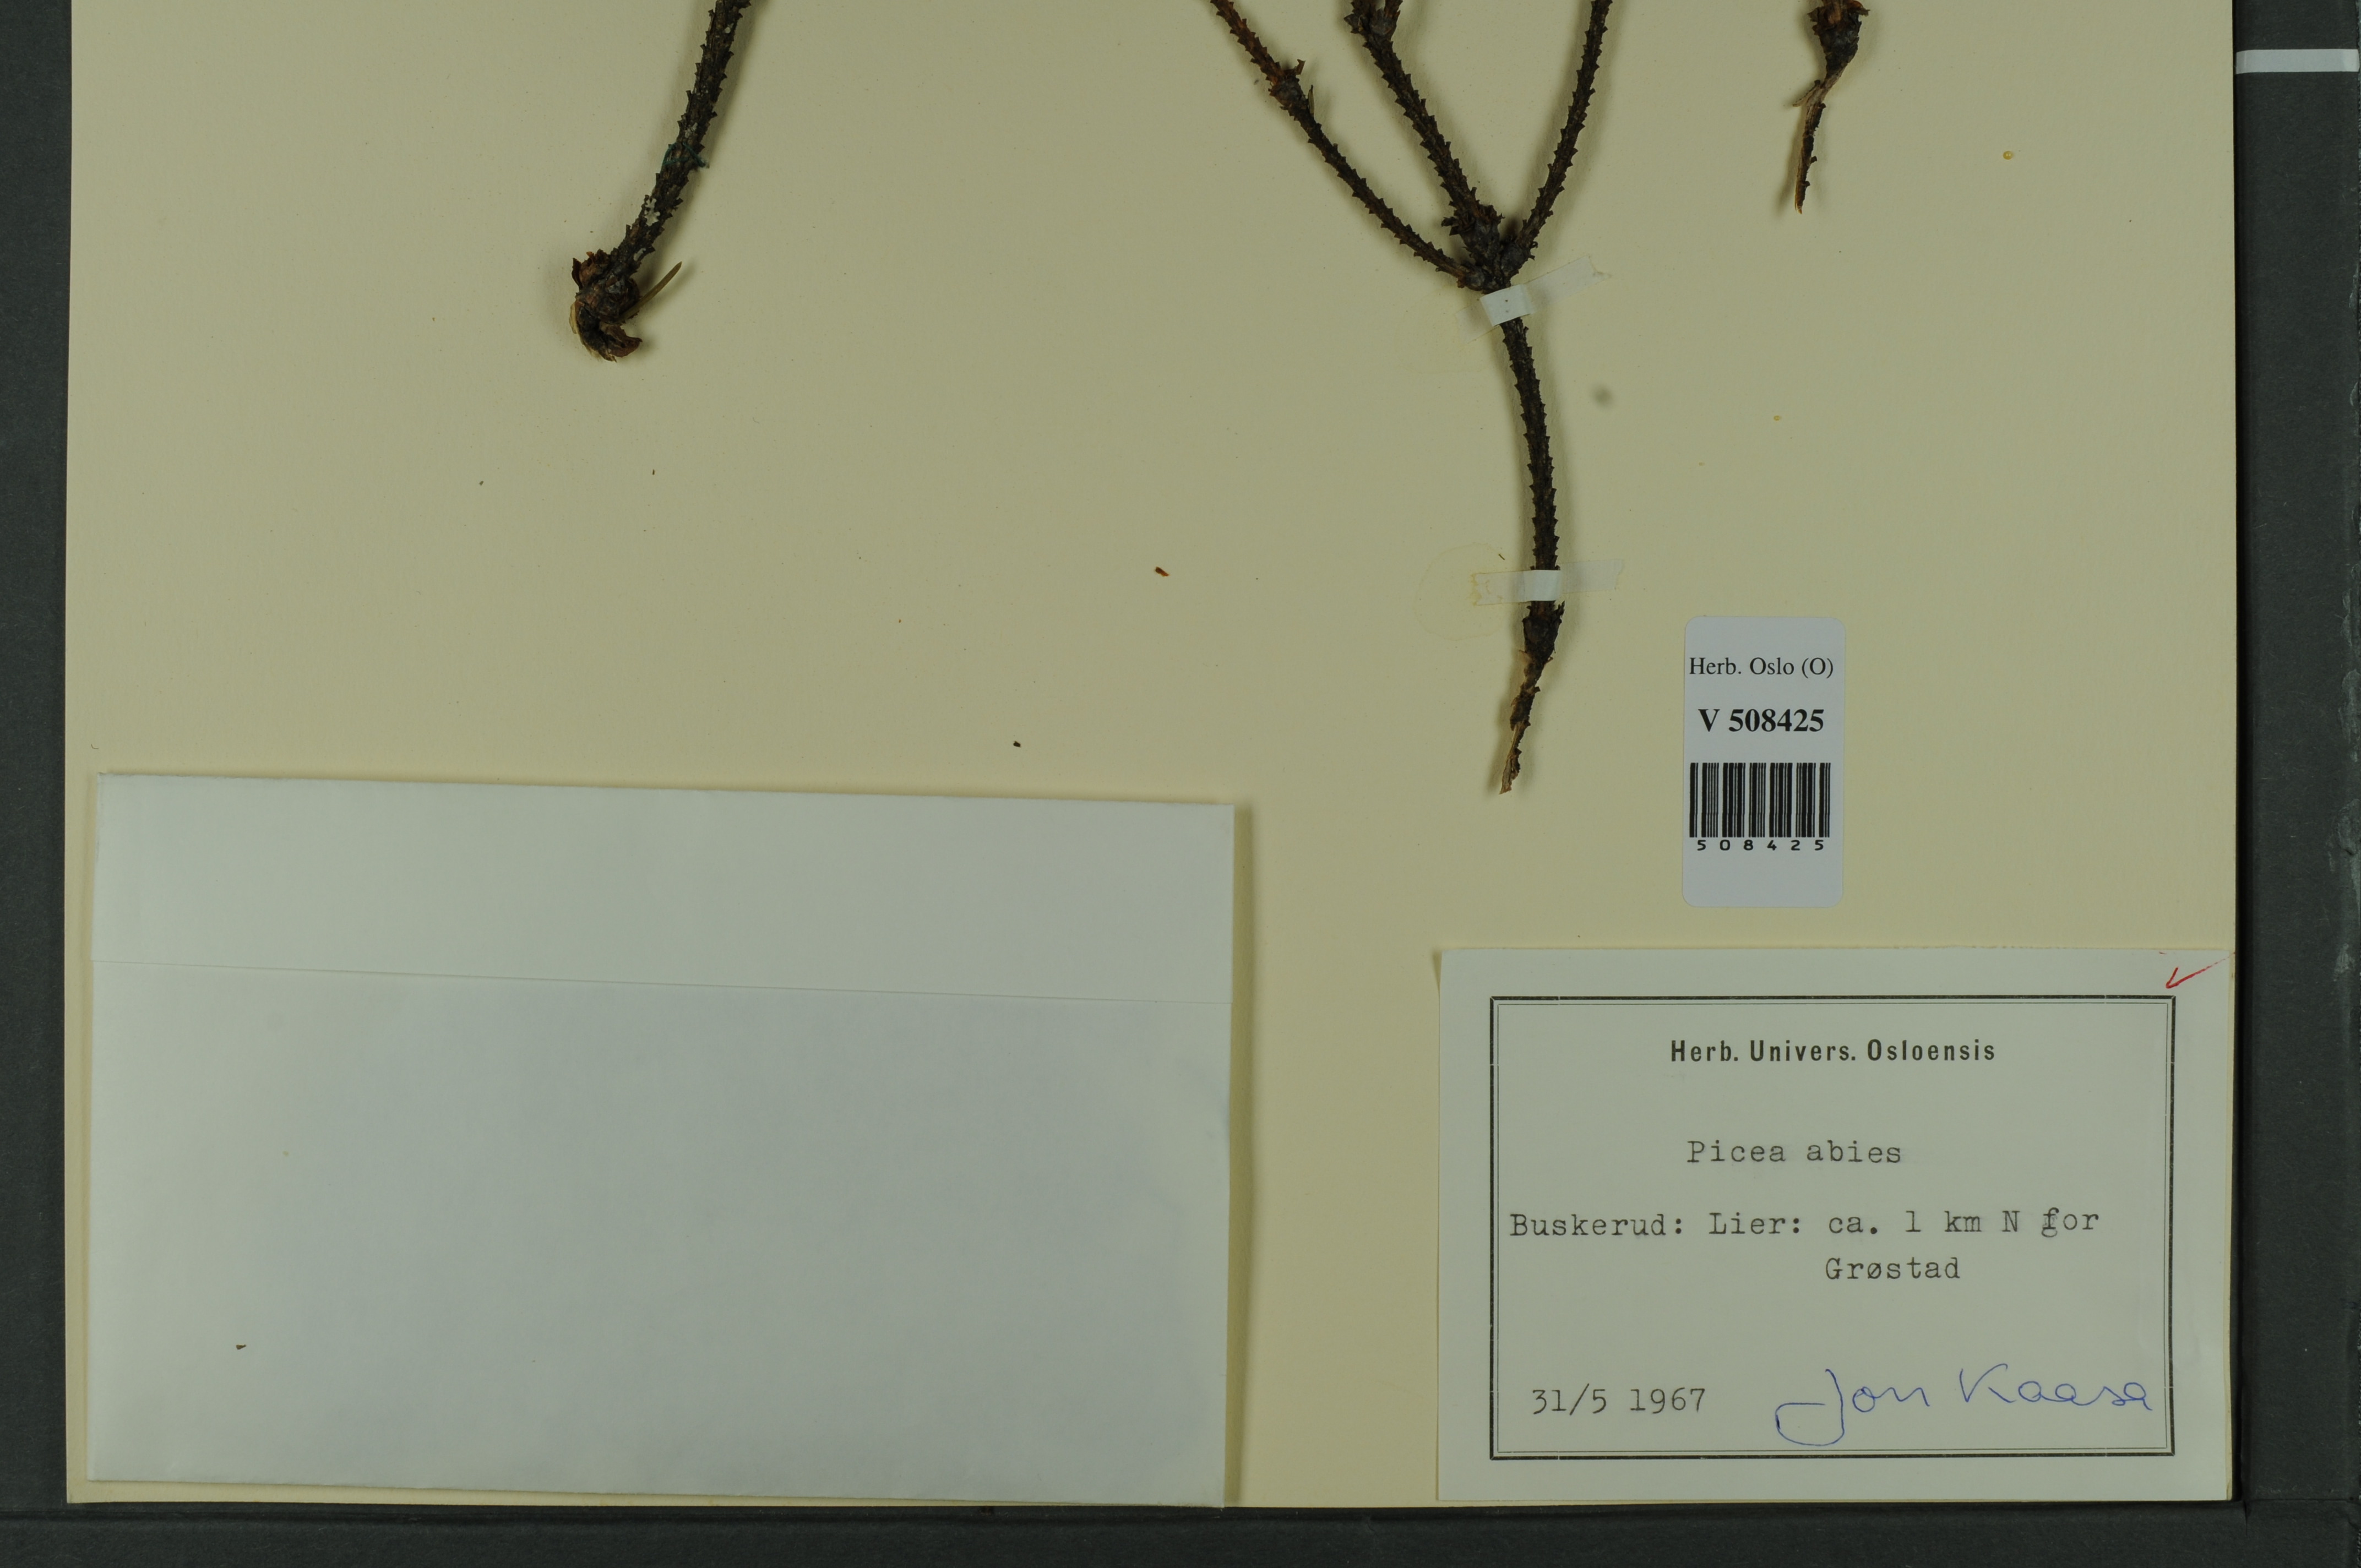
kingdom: Plantae
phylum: Tracheophyta
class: Pinopsida
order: Pinales
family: Pinaceae
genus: Picea
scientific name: Picea abies
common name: Norway spruce
